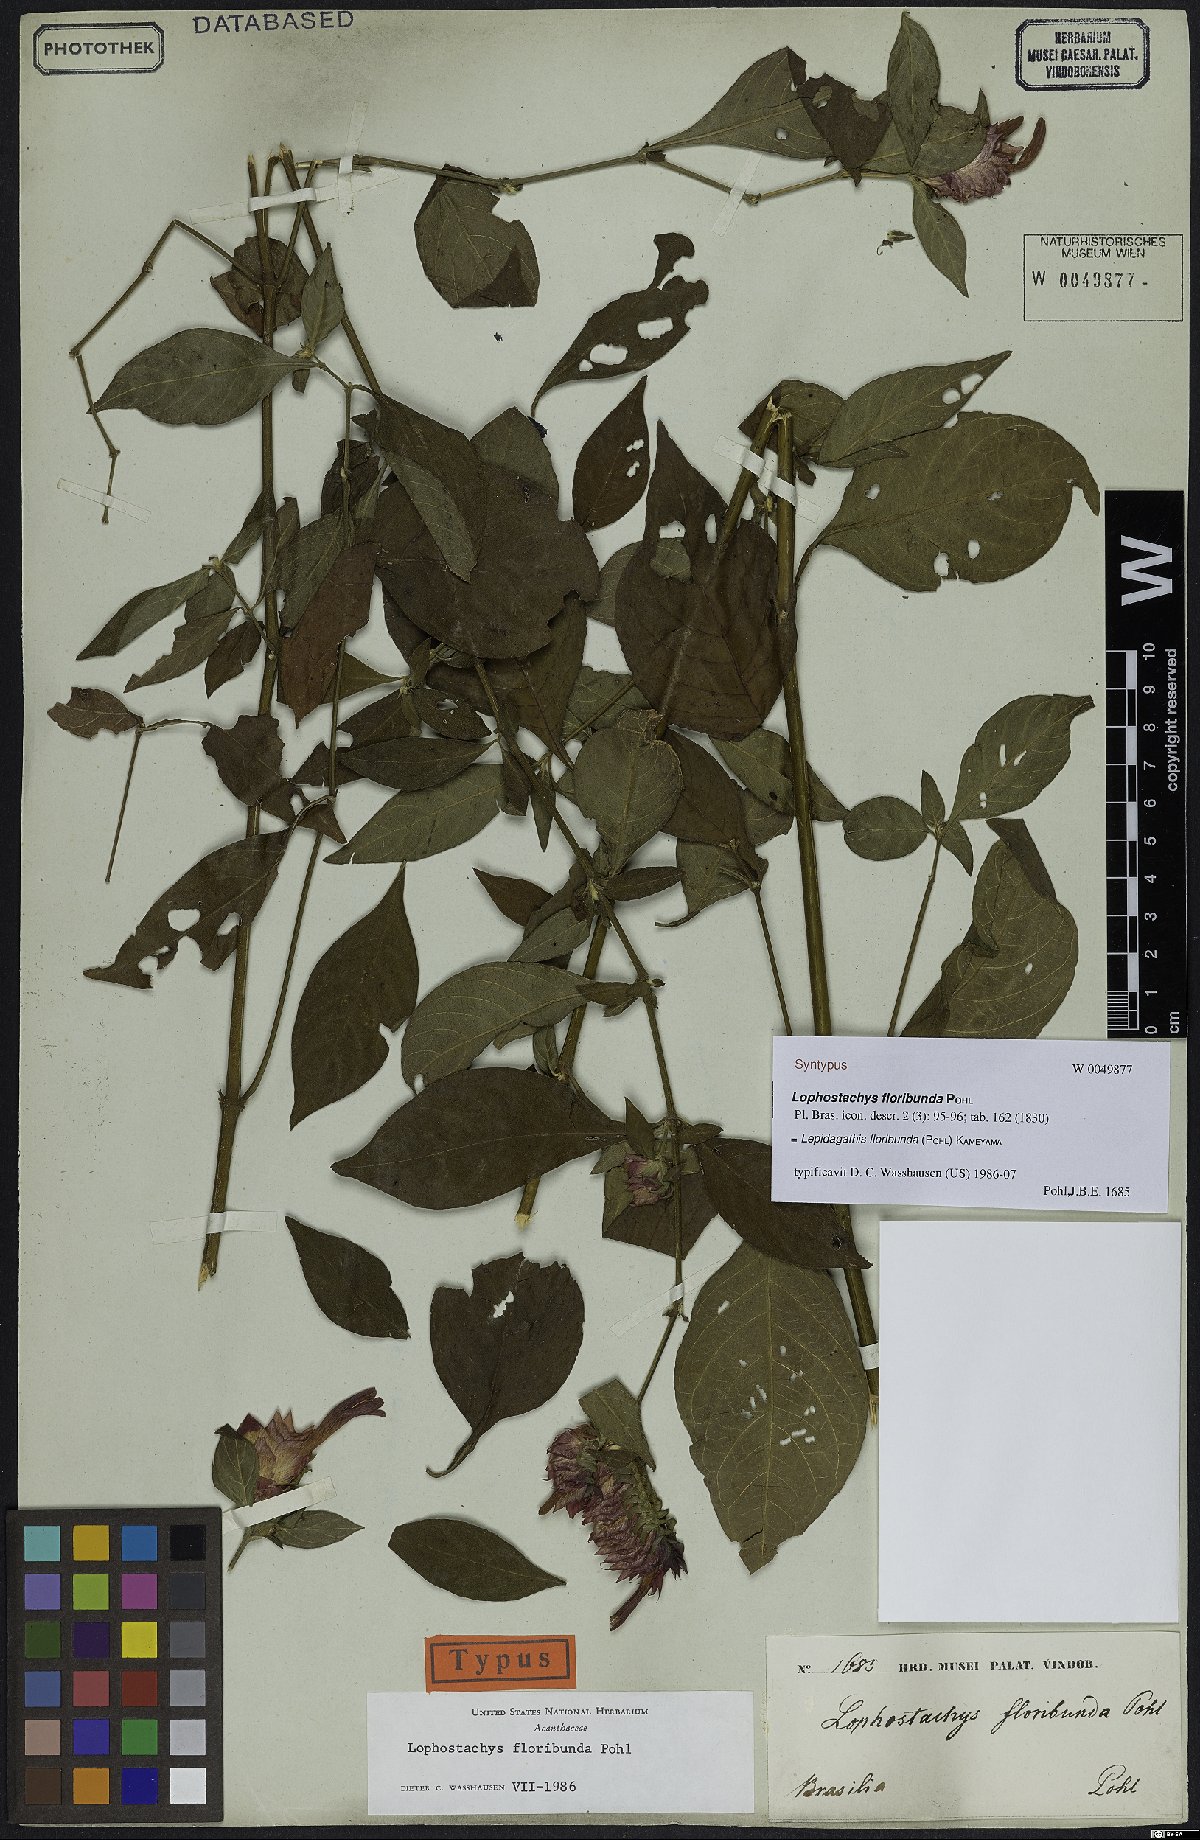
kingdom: Plantae
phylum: Tracheophyta
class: Magnoliopsida
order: Lamiales
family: Acanthaceae
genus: Lepidagathis
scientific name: Lepidagathis floribunda
